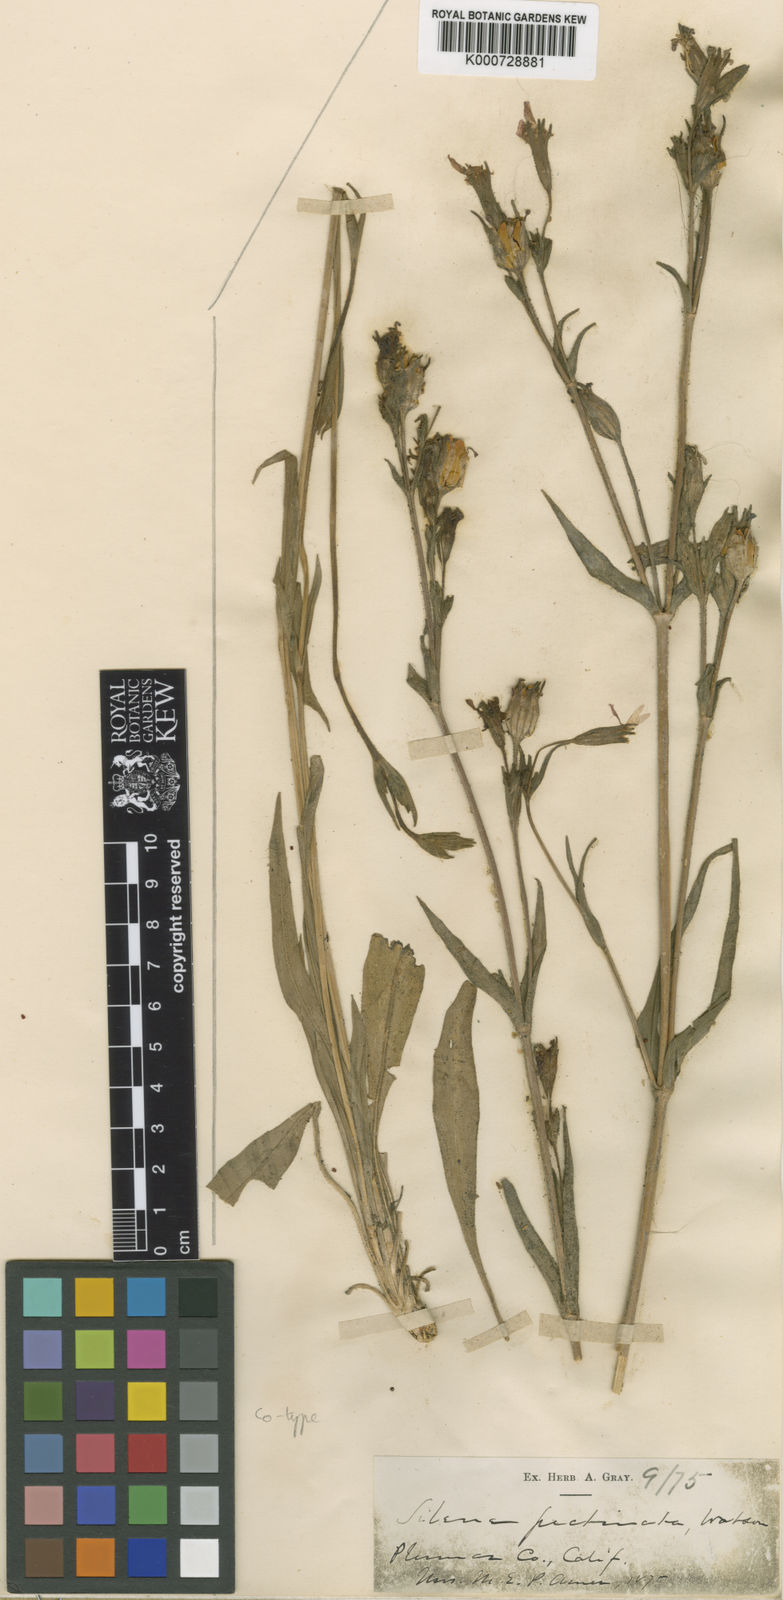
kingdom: Plantae
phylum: Tracheophyta
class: Magnoliopsida
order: Caryophyllales
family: Caryophyllaceae
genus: Silene
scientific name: Silene nuda
